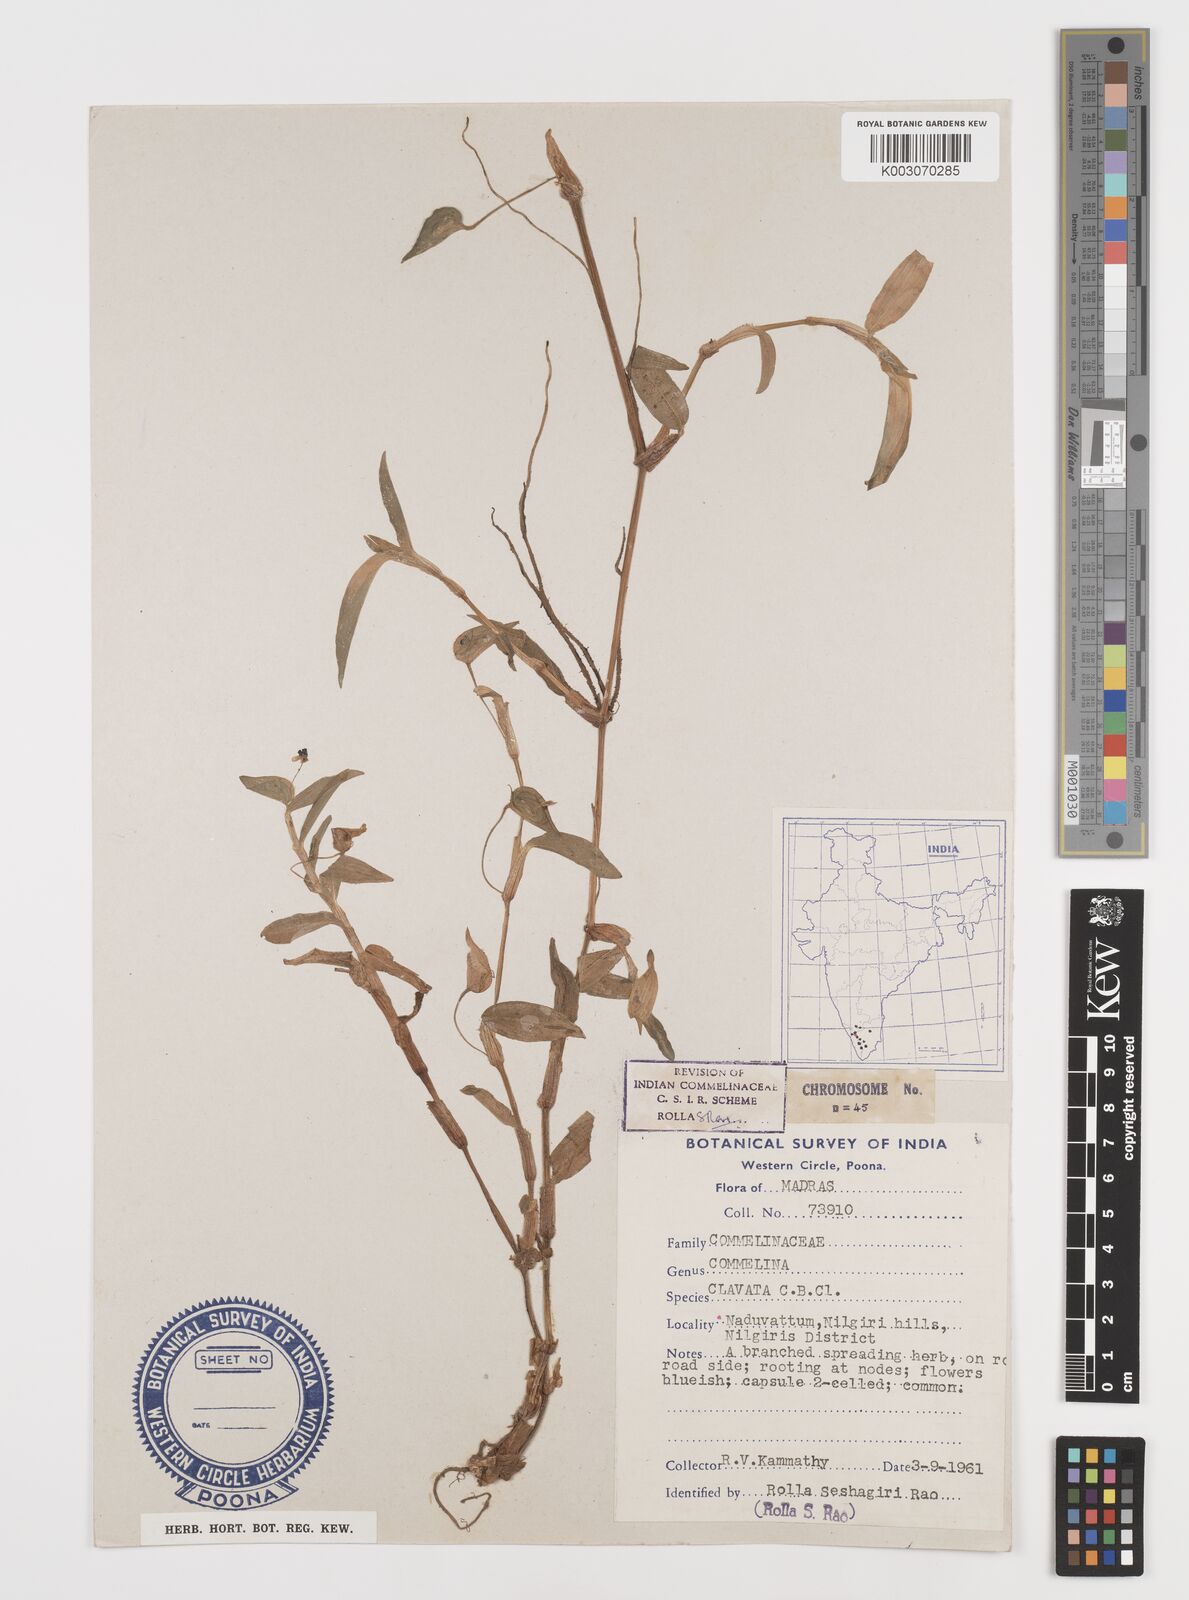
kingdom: Plantae
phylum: Tracheophyta
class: Liliopsida
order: Commelinales
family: Commelinaceae
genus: Commelina
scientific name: Commelina clavata
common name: Willow leaved dayflower
